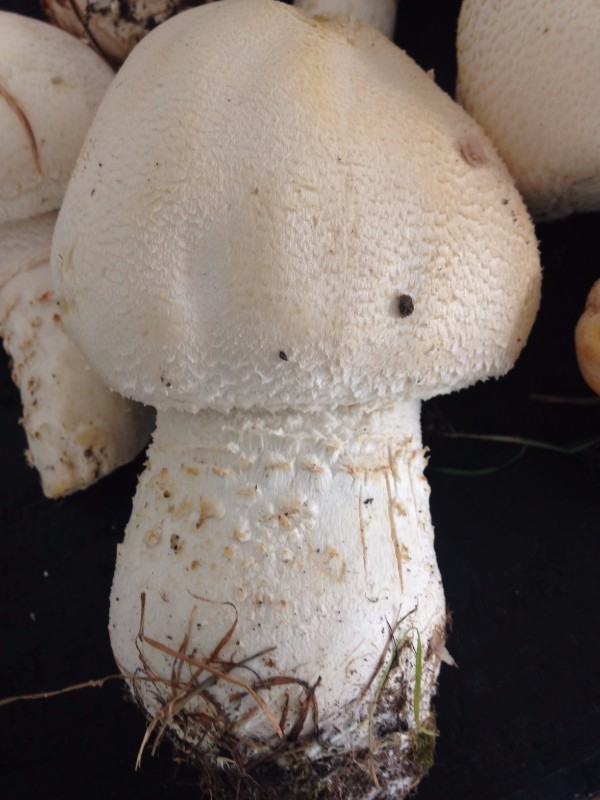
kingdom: Fungi
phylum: Basidiomycota
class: Agaricomycetes
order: Agaricales
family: Agaricaceae
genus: Agaricus
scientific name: Agaricus crocodilinus
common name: landsby-champignon
